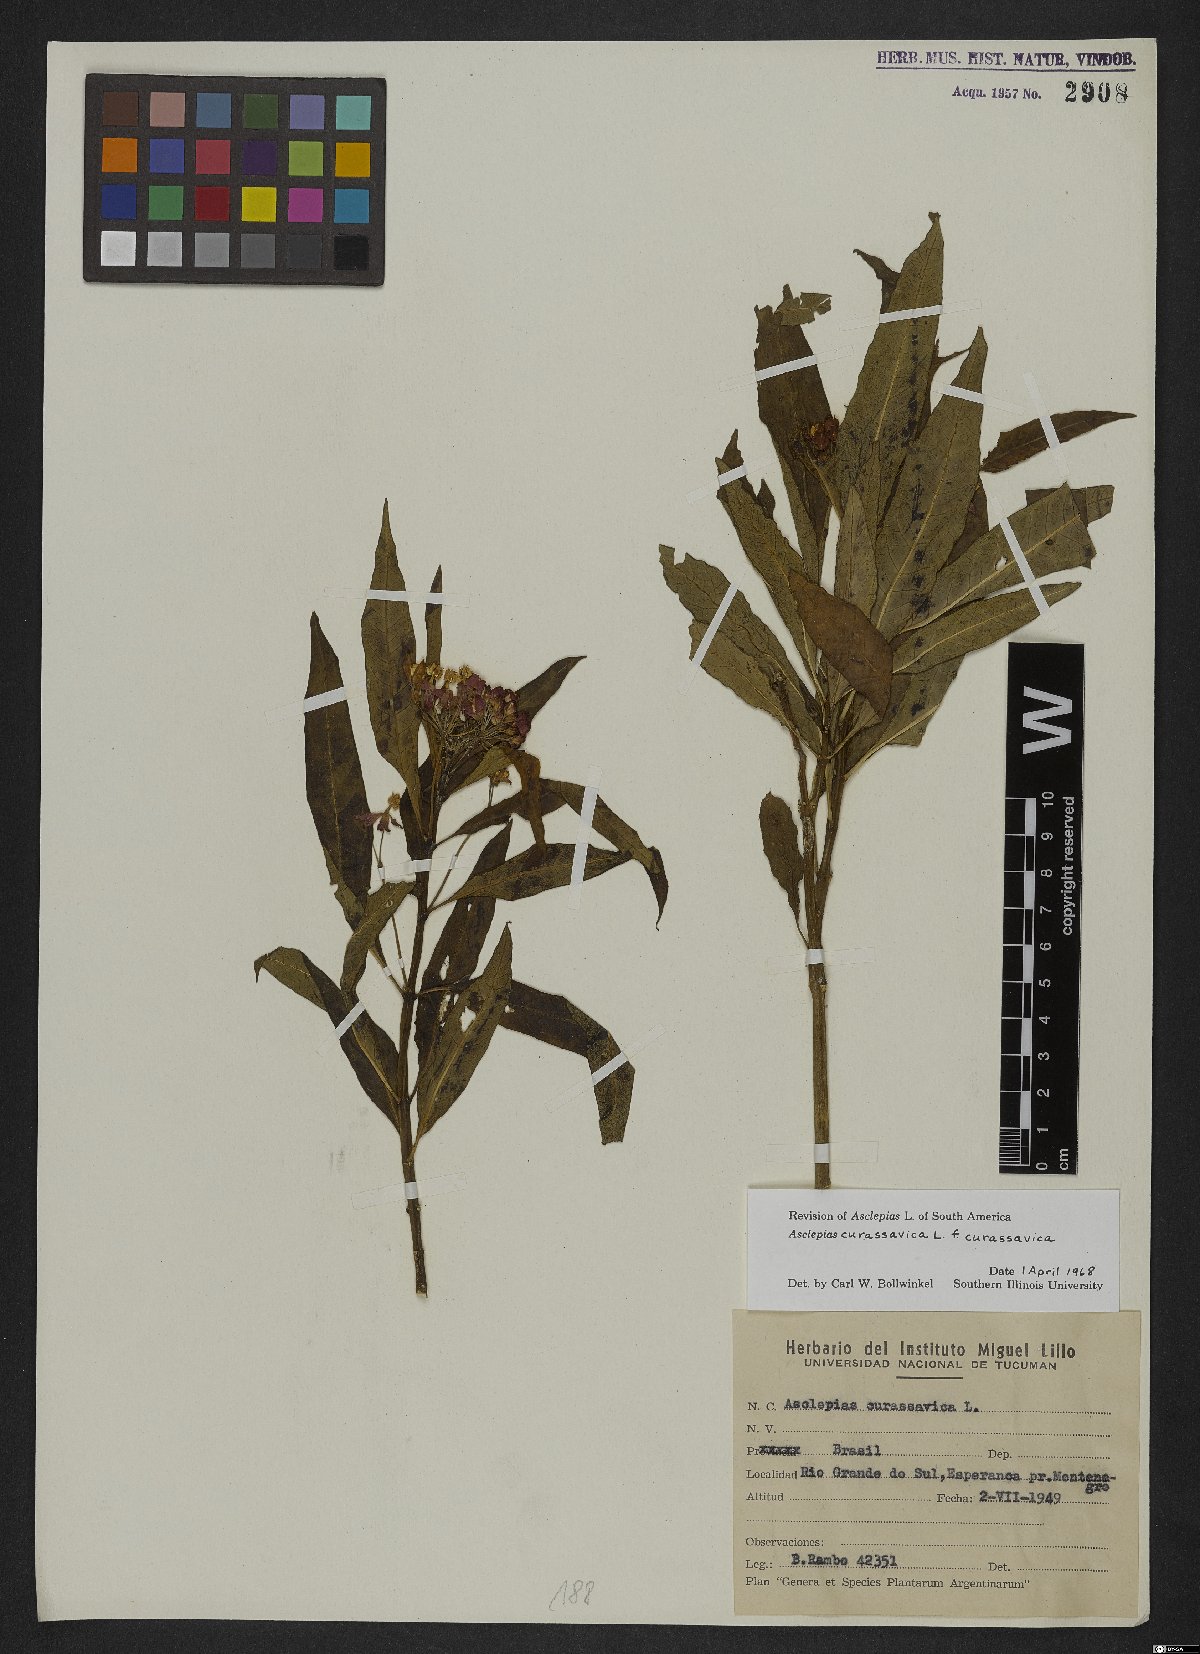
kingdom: Plantae
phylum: Tracheophyta
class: Magnoliopsida
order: Gentianales
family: Apocynaceae
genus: Asclepias
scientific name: Asclepias curassavica
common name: Bloodflower
